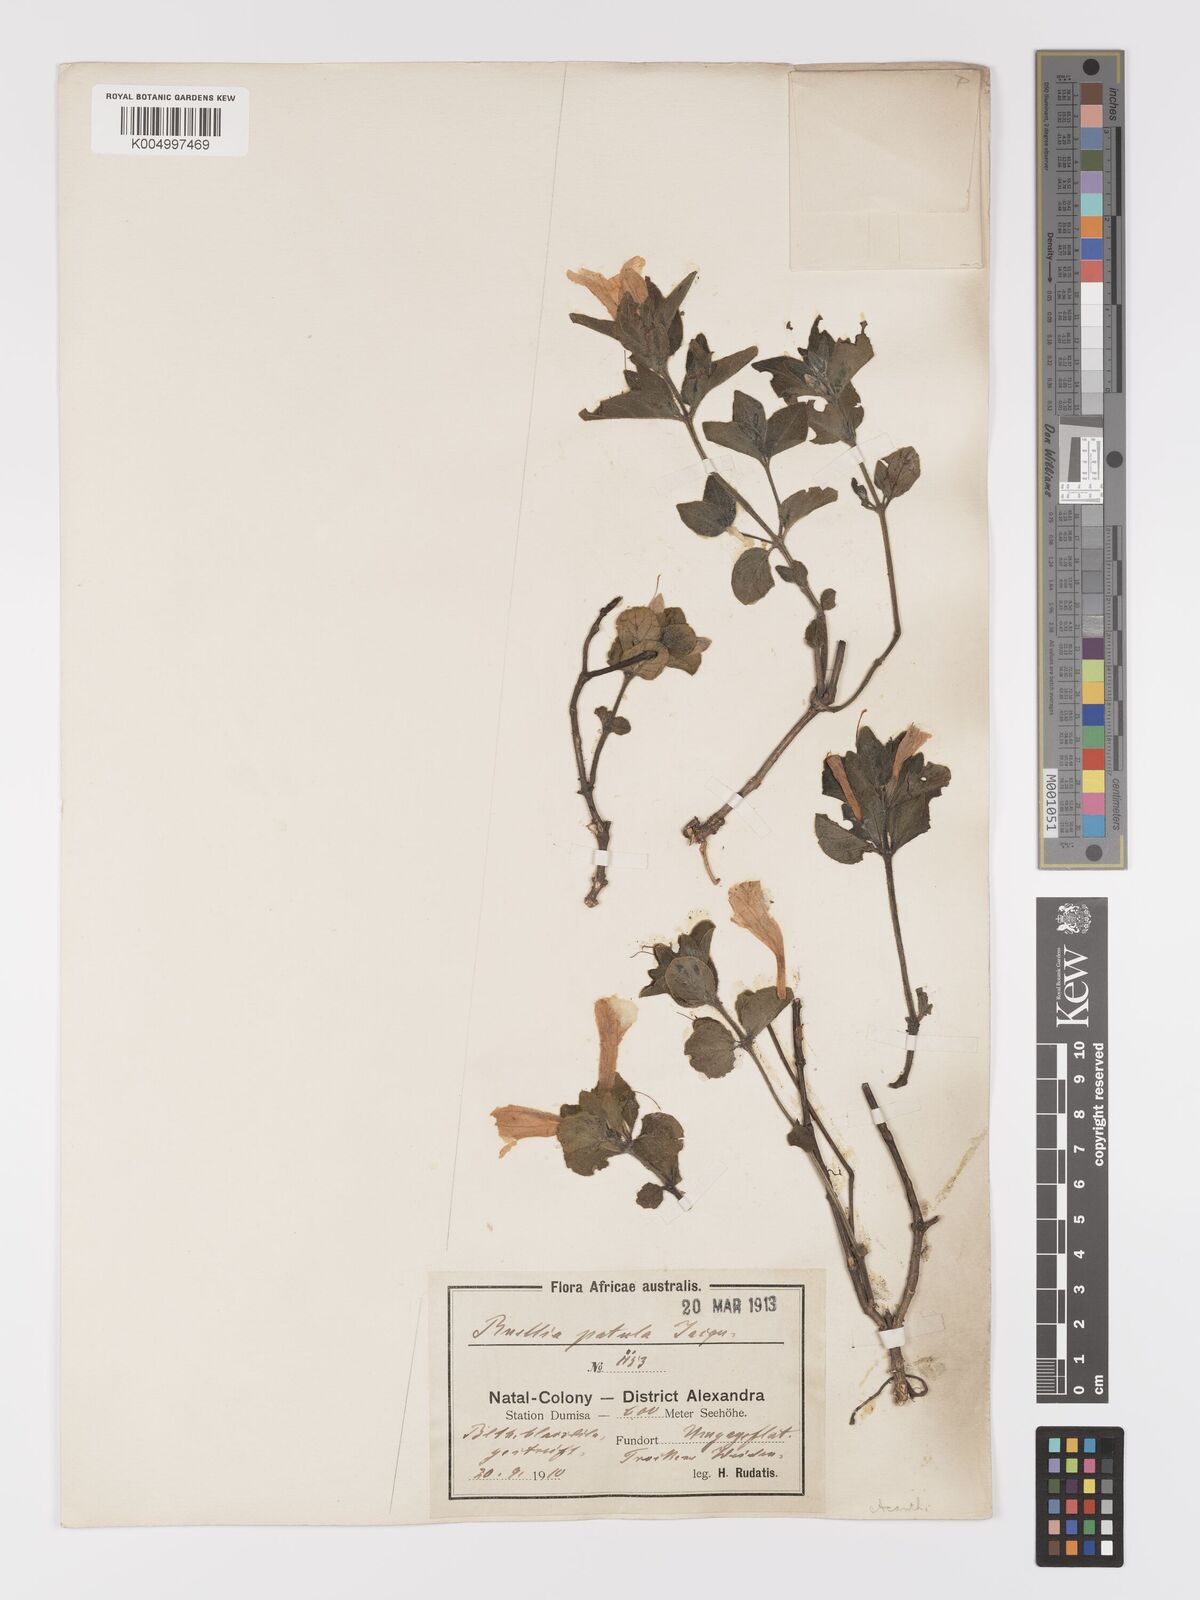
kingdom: Plantae
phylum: Tracheophyta
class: Magnoliopsida
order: Lamiales
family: Acanthaceae
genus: Ruellia
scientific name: Ruellia cordata
